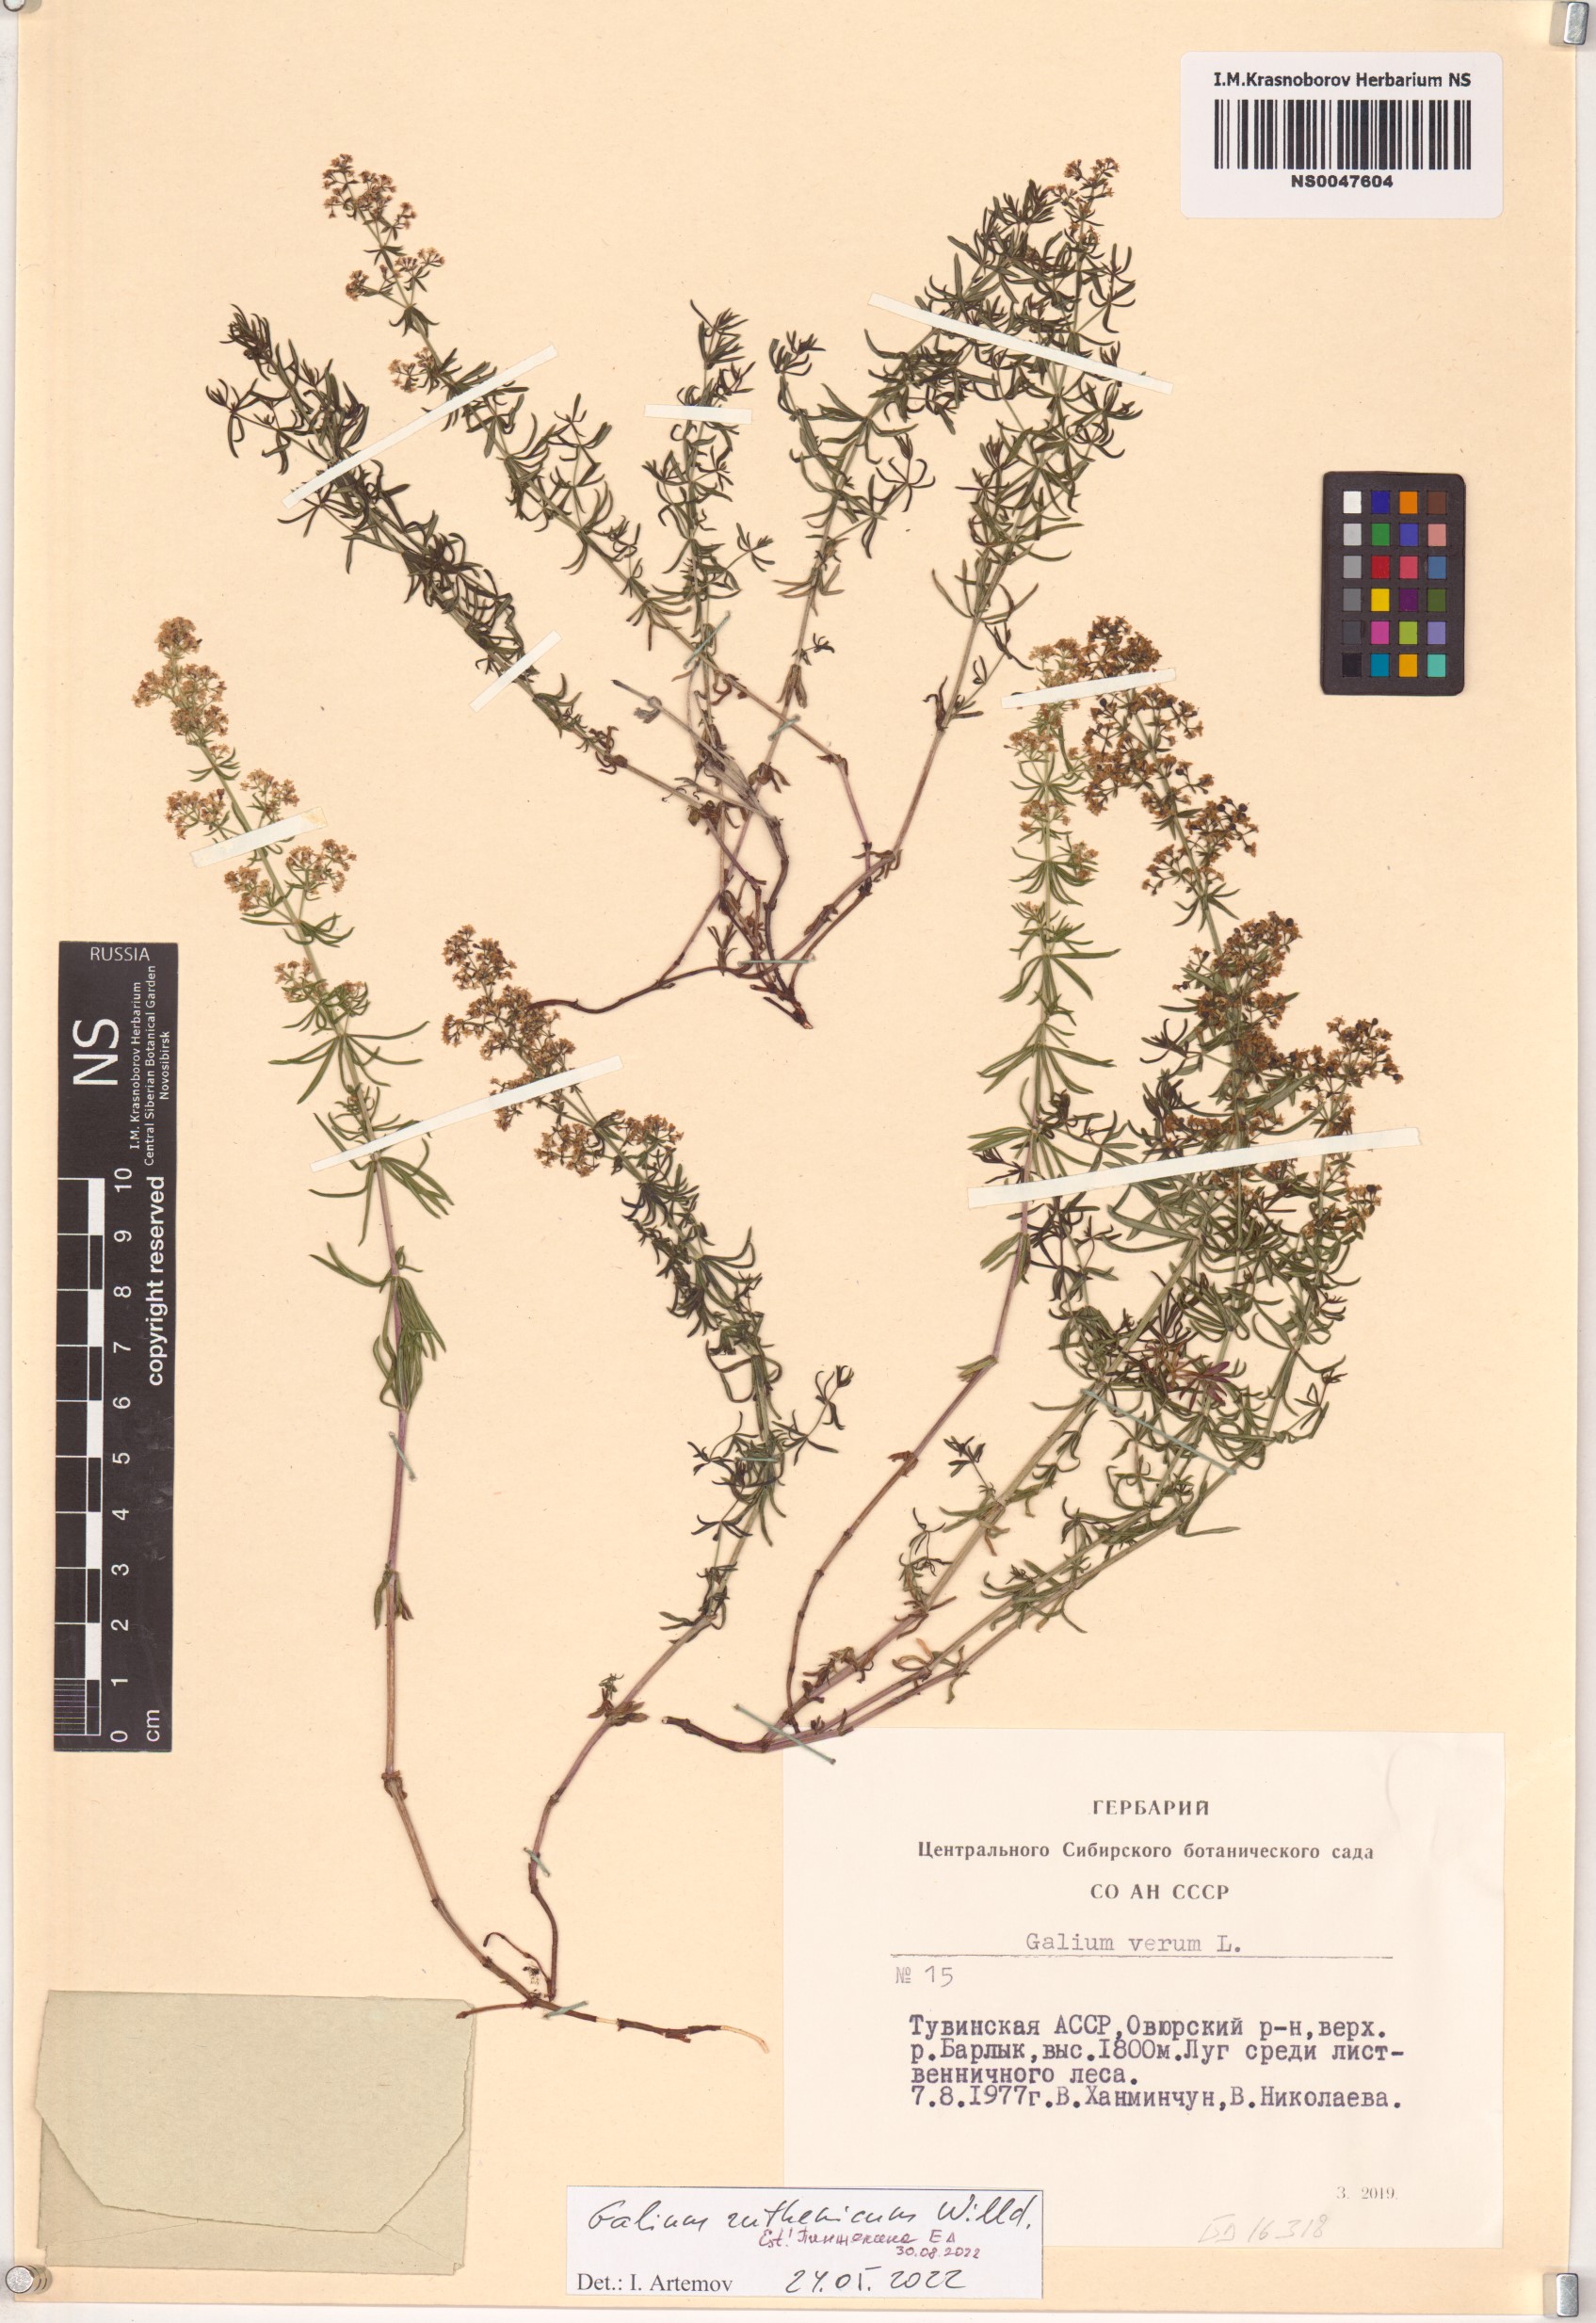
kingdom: Plantae
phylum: Tracheophyta
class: Magnoliopsida
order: Gentianales
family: Rubiaceae
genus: Galium
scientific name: Galium verum
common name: Lady's bedstraw
